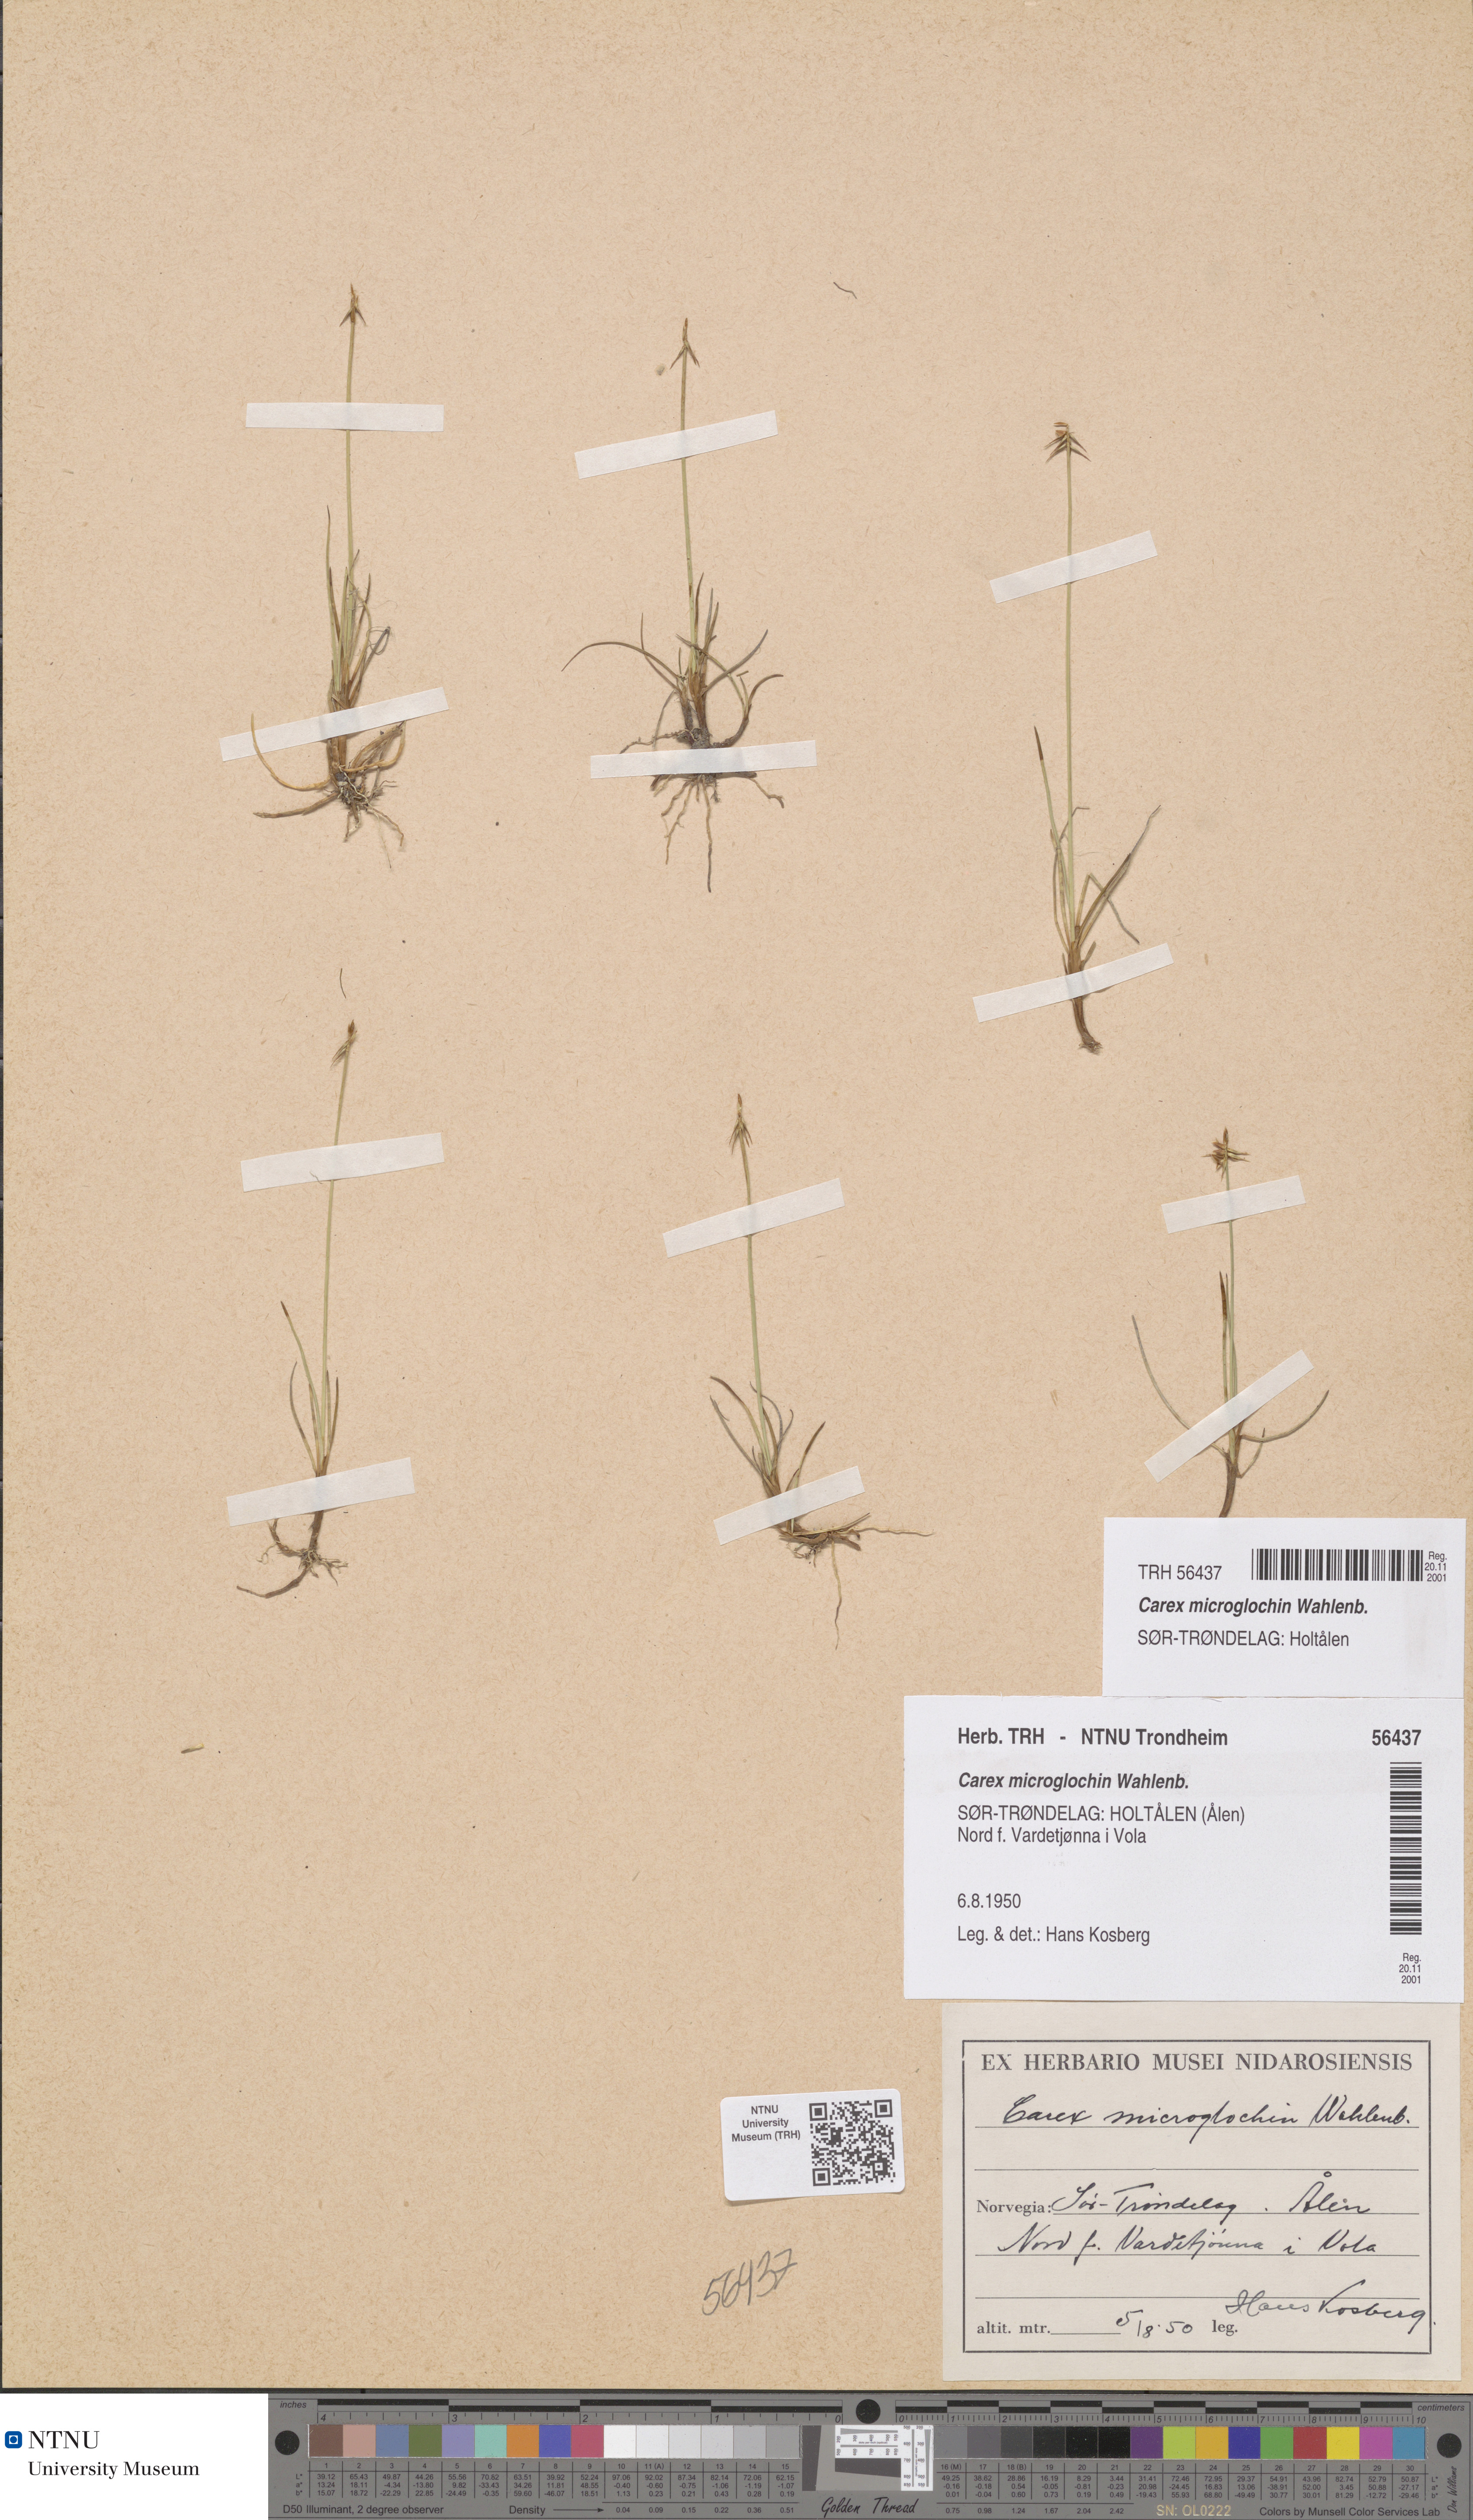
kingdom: Plantae
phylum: Tracheophyta
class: Liliopsida
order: Poales
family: Cyperaceae
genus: Carex
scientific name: Carex microglochin
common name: Bristle sedge
